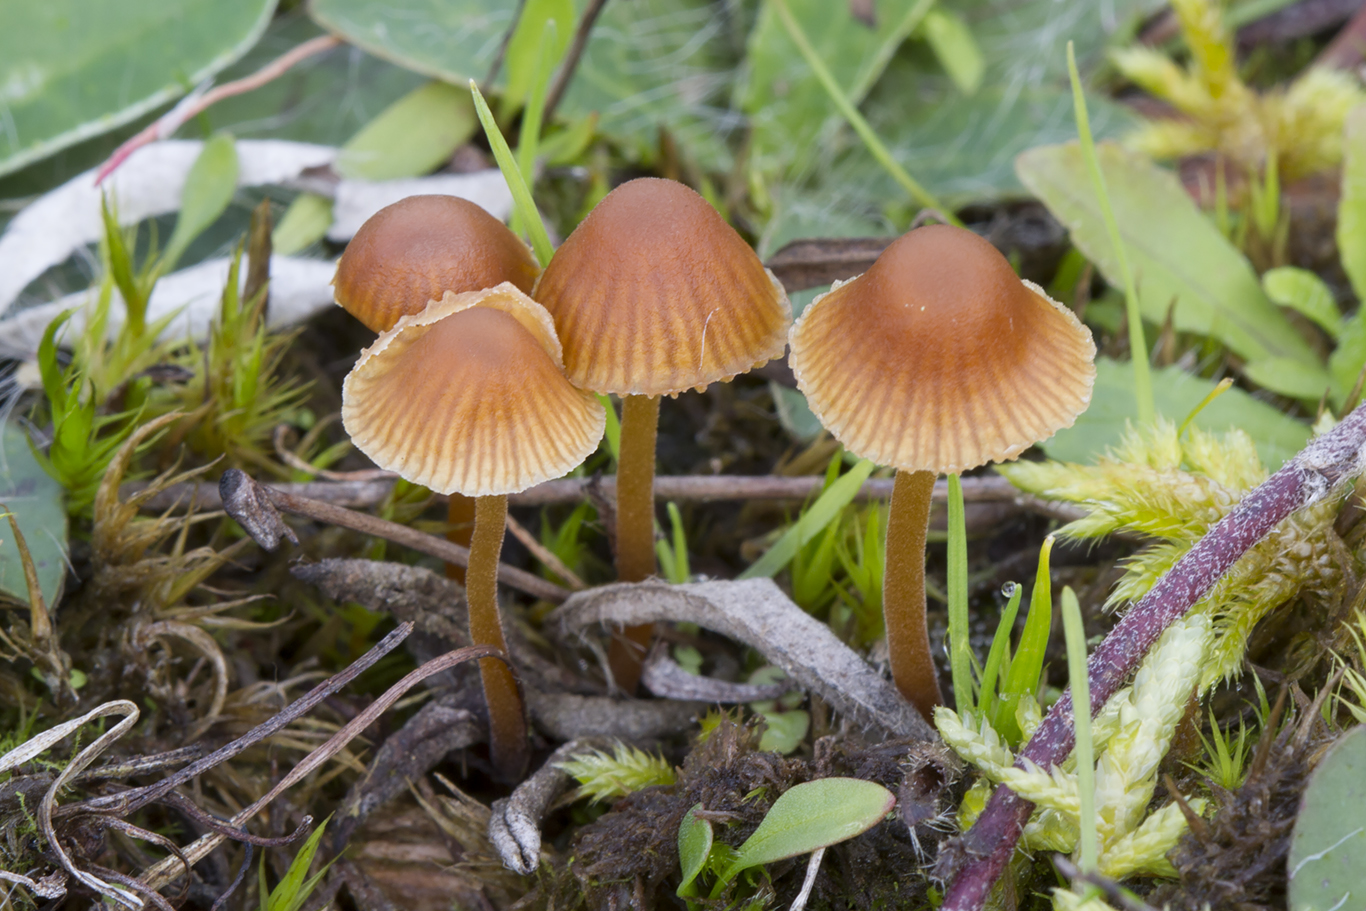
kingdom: Fungi
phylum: Basidiomycota
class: Agaricomycetes
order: Agaricales
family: Hymenogastraceae
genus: Galerina
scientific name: Galerina atkinsoniana
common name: Hairy bell
